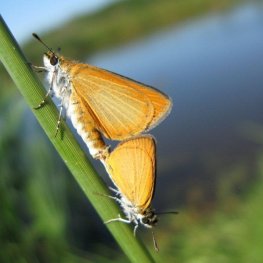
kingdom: Animalia
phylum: Arthropoda
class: Insecta
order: Lepidoptera
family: Hesperiidae
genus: Ancyloxypha
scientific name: Ancyloxypha numitor
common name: Least Skipper
